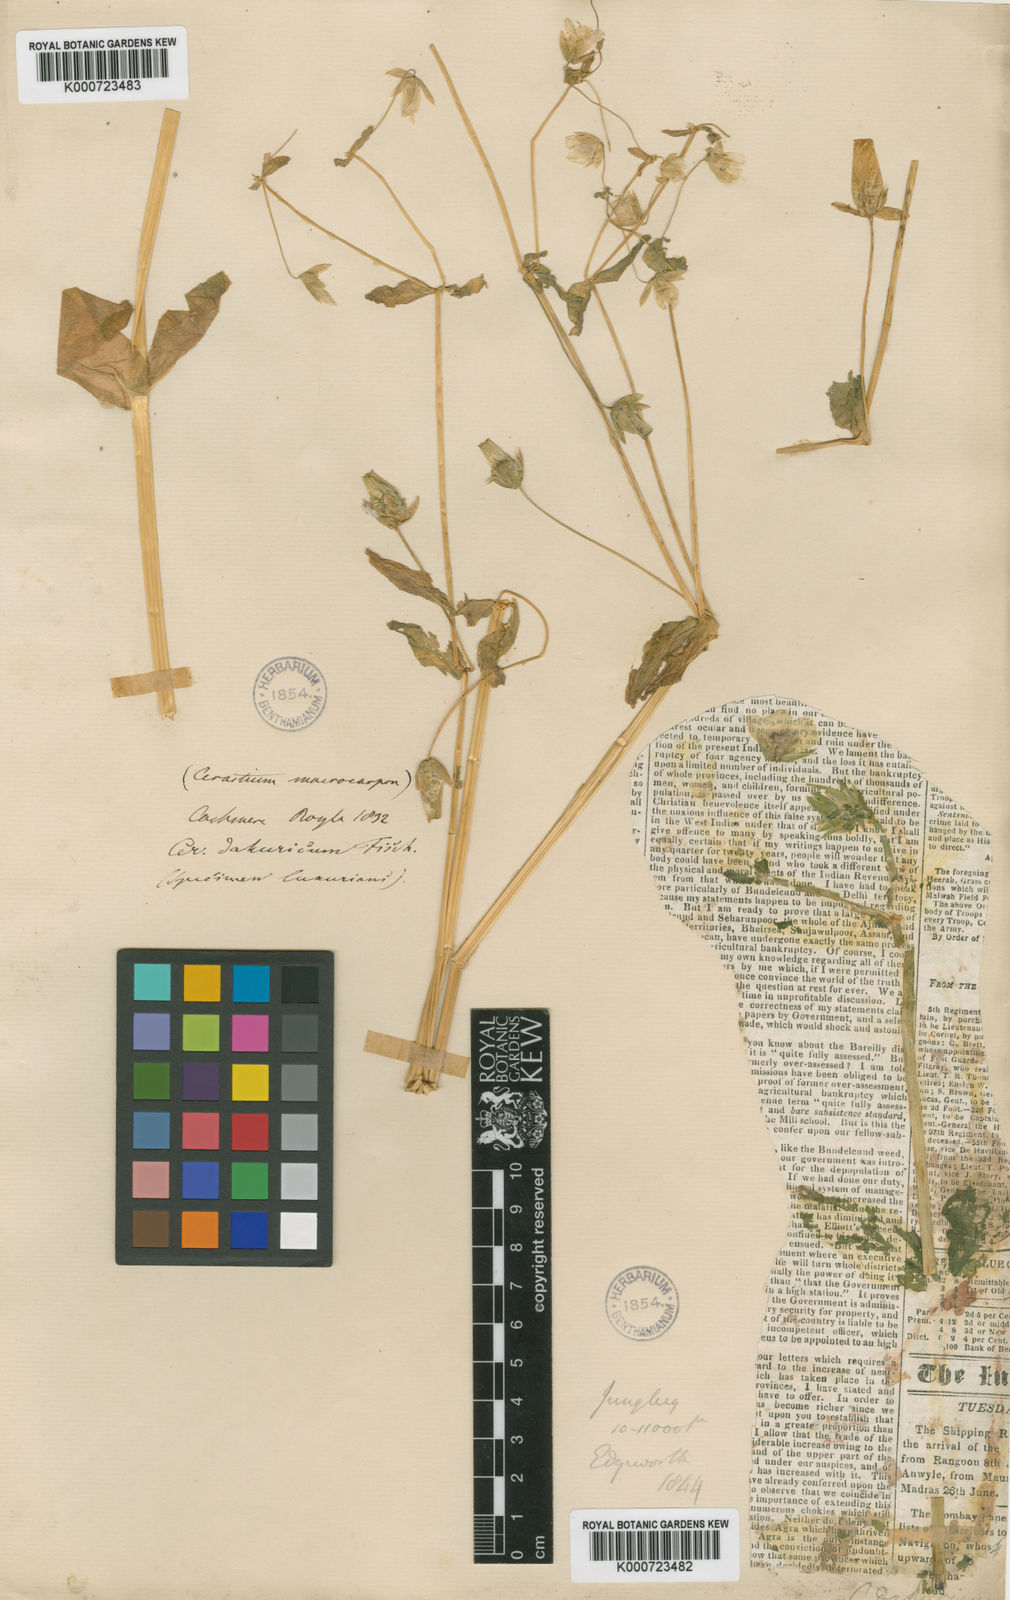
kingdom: Plantae
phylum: Tracheophyta
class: Magnoliopsida
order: Caryophyllales
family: Caryophyllaceae
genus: Cerastium
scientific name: Cerastium
